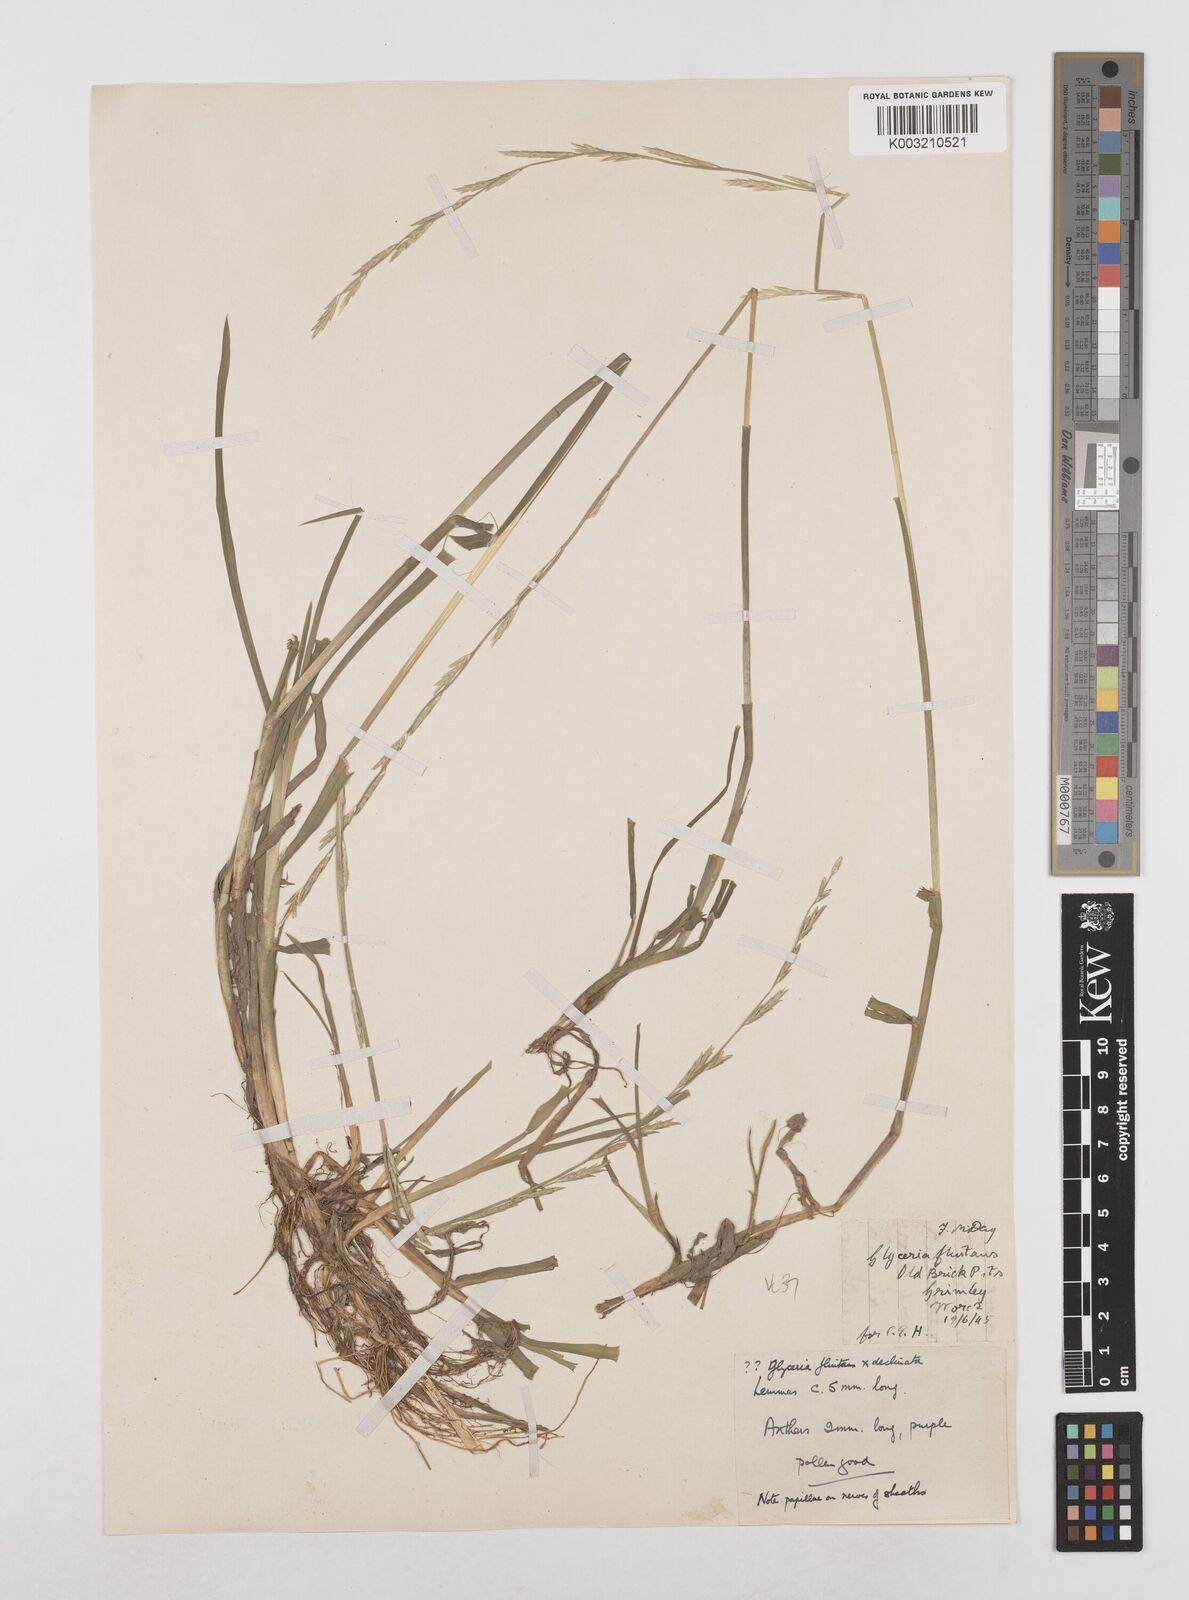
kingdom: Plantae
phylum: Tracheophyta
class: Liliopsida
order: Poales
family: Poaceae
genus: Glyceria
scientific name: Glyceria declinata
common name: Small sweet-grass
